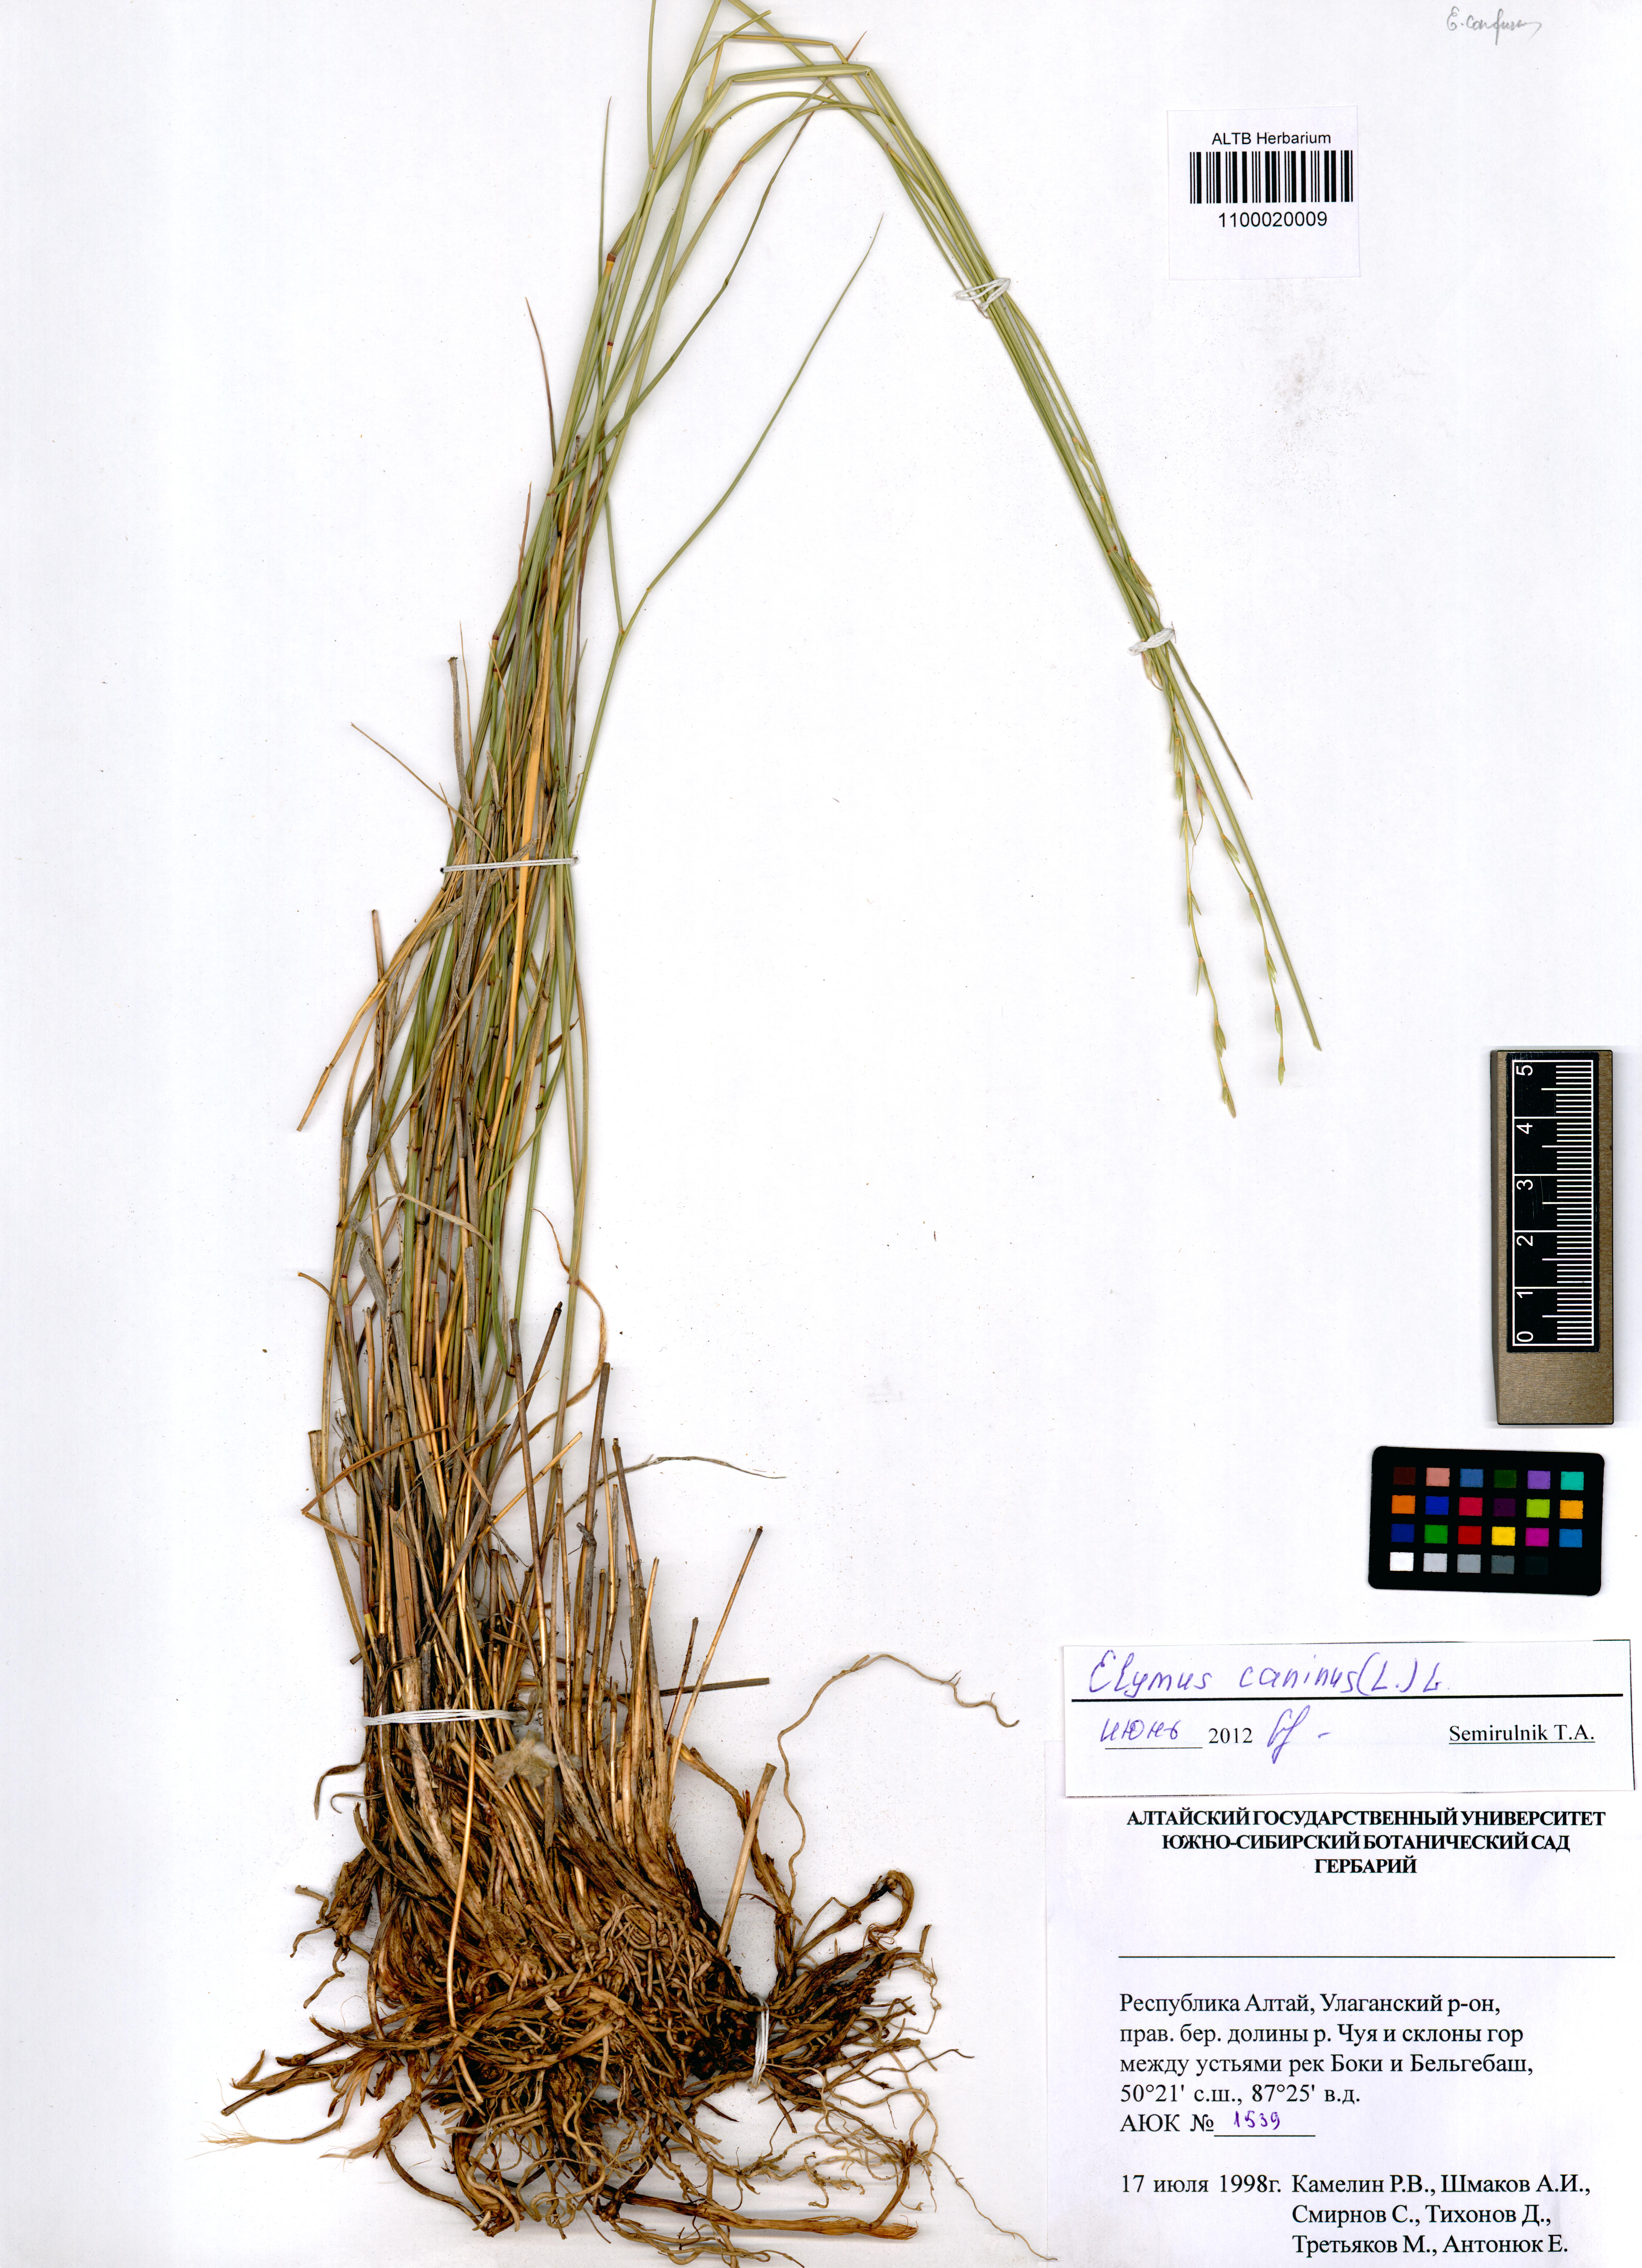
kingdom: Plantae
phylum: Tracheophyta
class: Liliopsida
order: Poales
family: Poaceae
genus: Elymus
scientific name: Elymus caninus
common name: Bearded couch
